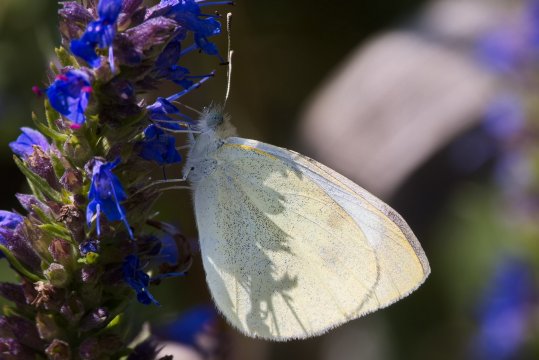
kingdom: Animalia
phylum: Arthropoda
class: Insecta
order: Lepidoptera
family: Pieridae
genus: Pieris
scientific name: Pieris rapae
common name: Cabbage White
